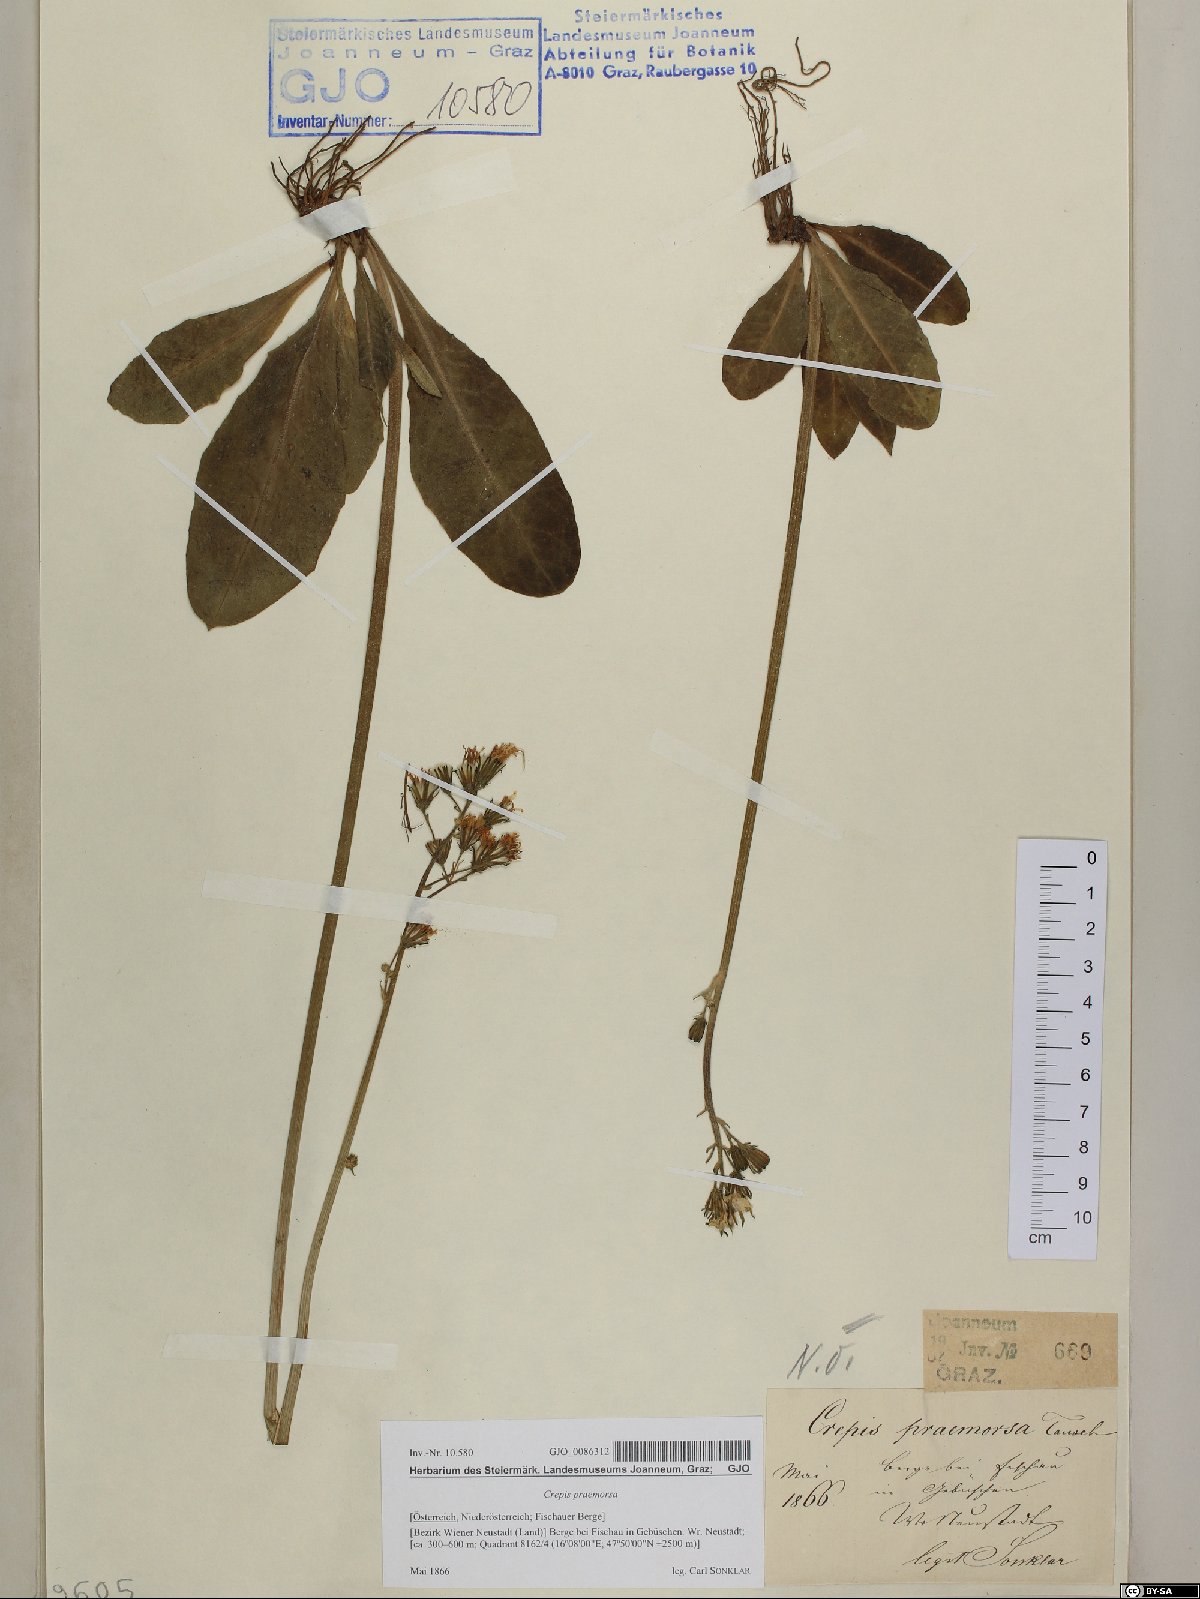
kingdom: Plantae
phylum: Tracheophyta
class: Magnoliopsida
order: Asterales
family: Asteraceae
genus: Crepis
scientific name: Crepis praemorsa
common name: Leafless hawk's-beard
